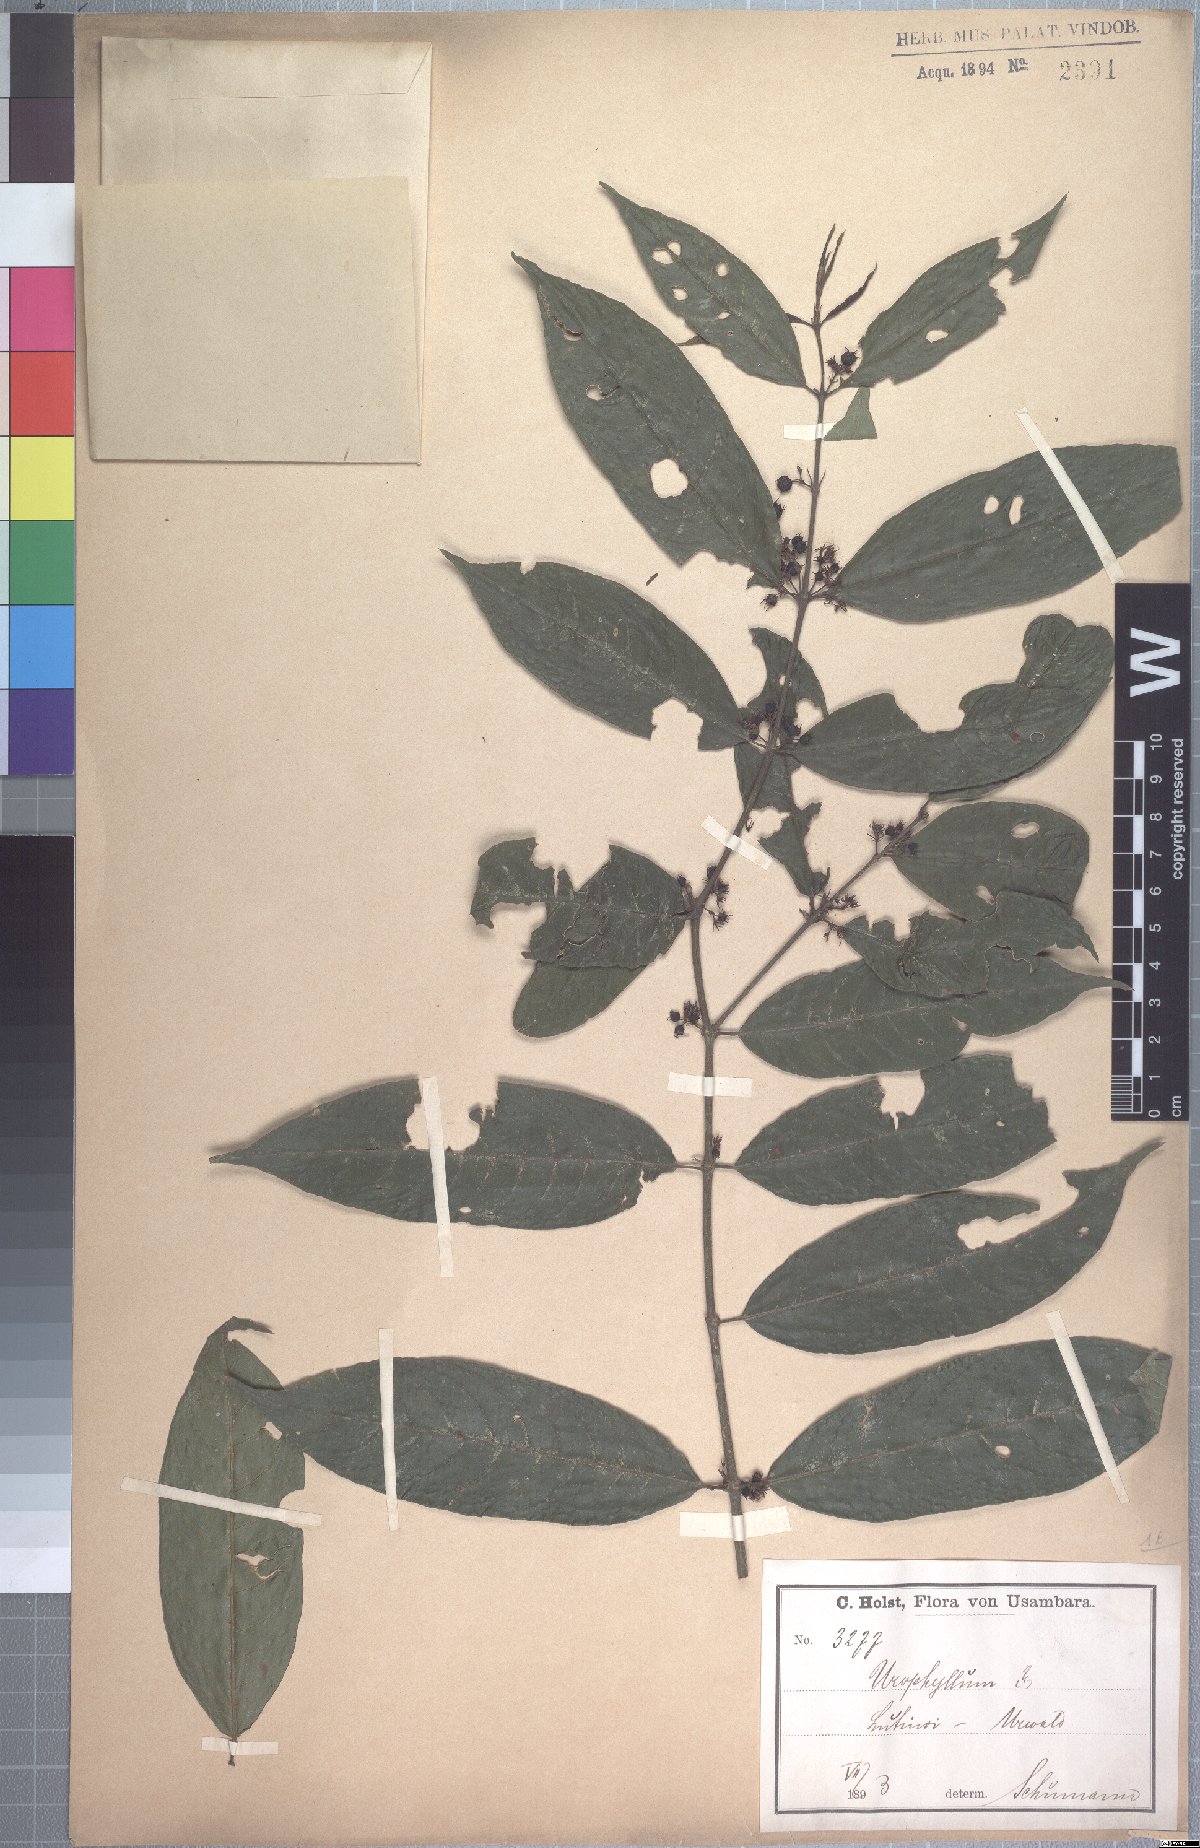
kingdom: Plantae
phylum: Tracheophyta
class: Magnoliopsida
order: Gentianales
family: Rubiaceae
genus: Pauridiantha
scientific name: Pauridiantha paucinervis
